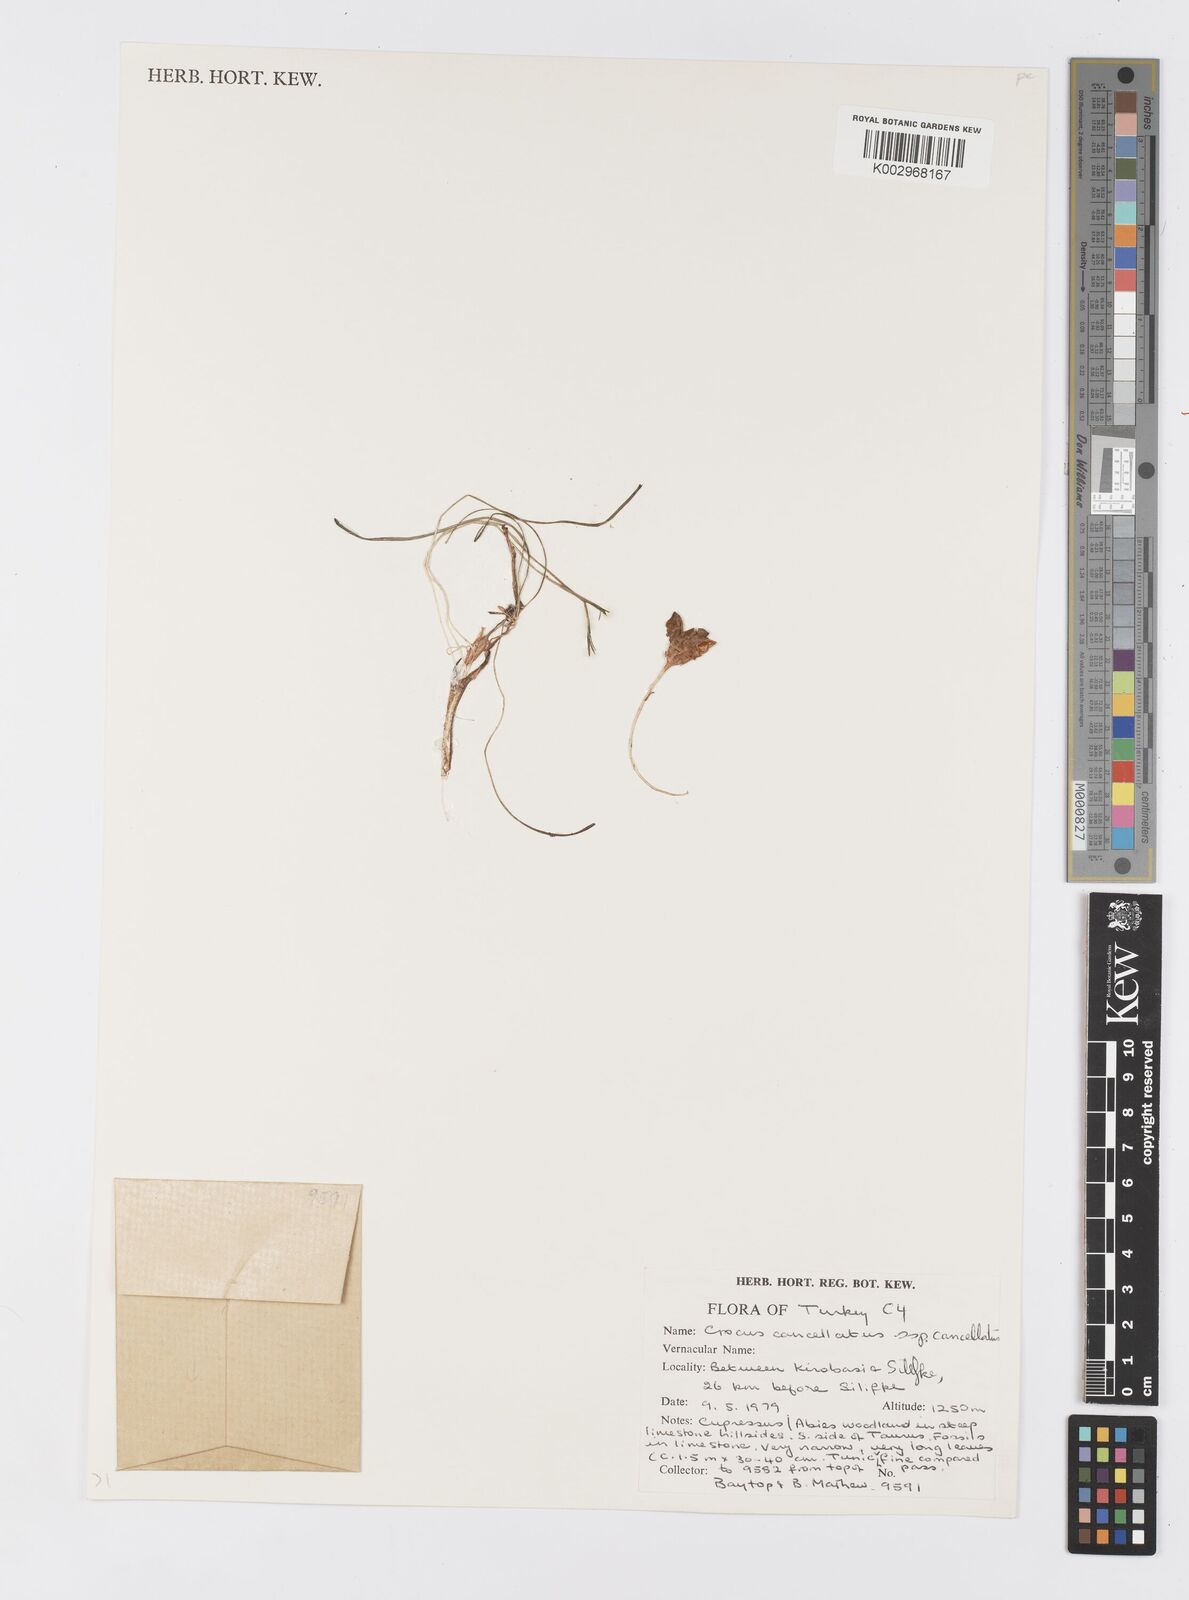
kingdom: Plantae
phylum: Tracheophyta
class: Liliopsida
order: Asparagales
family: Iridaceae
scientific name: Iridaceae
